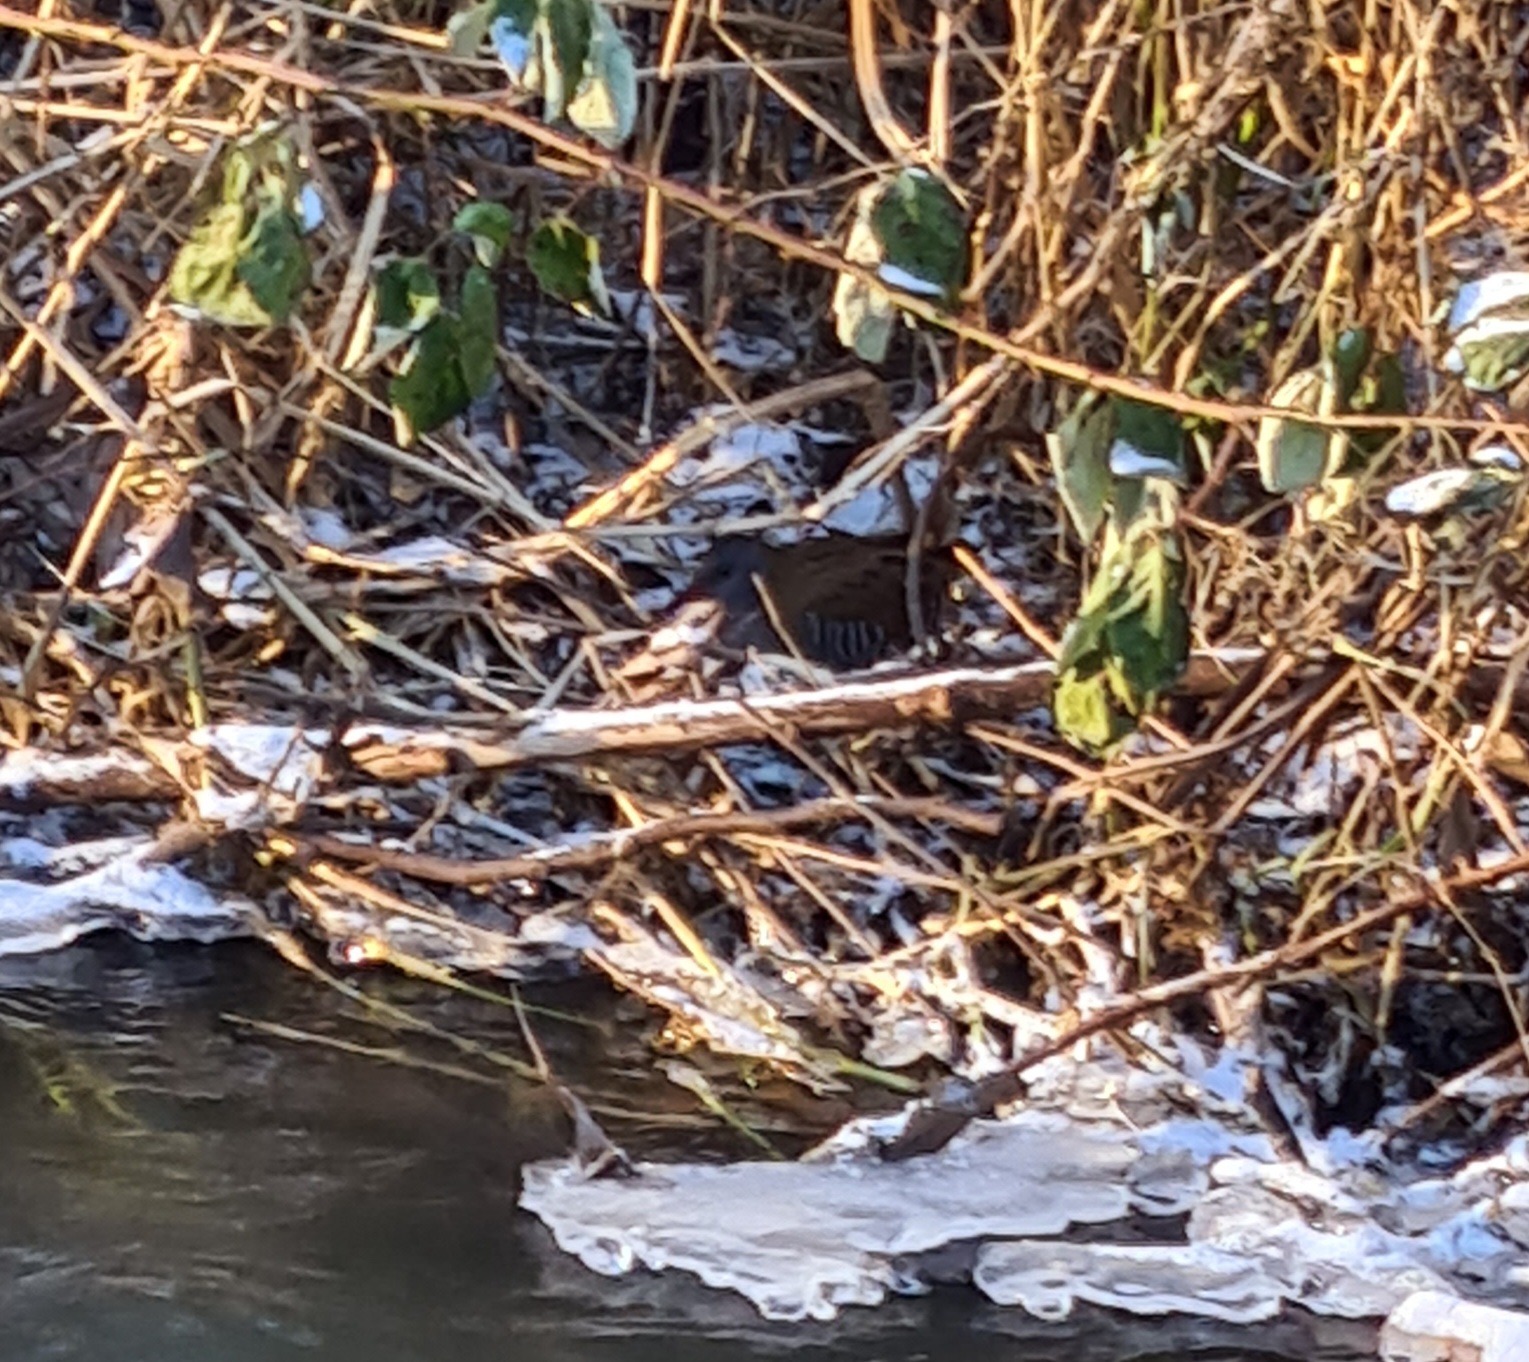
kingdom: Animalia
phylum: Chordata
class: Aves
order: Gruiformes
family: Rallidae
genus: Rallus
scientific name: Rallus aquaticus
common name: Vandrikse
